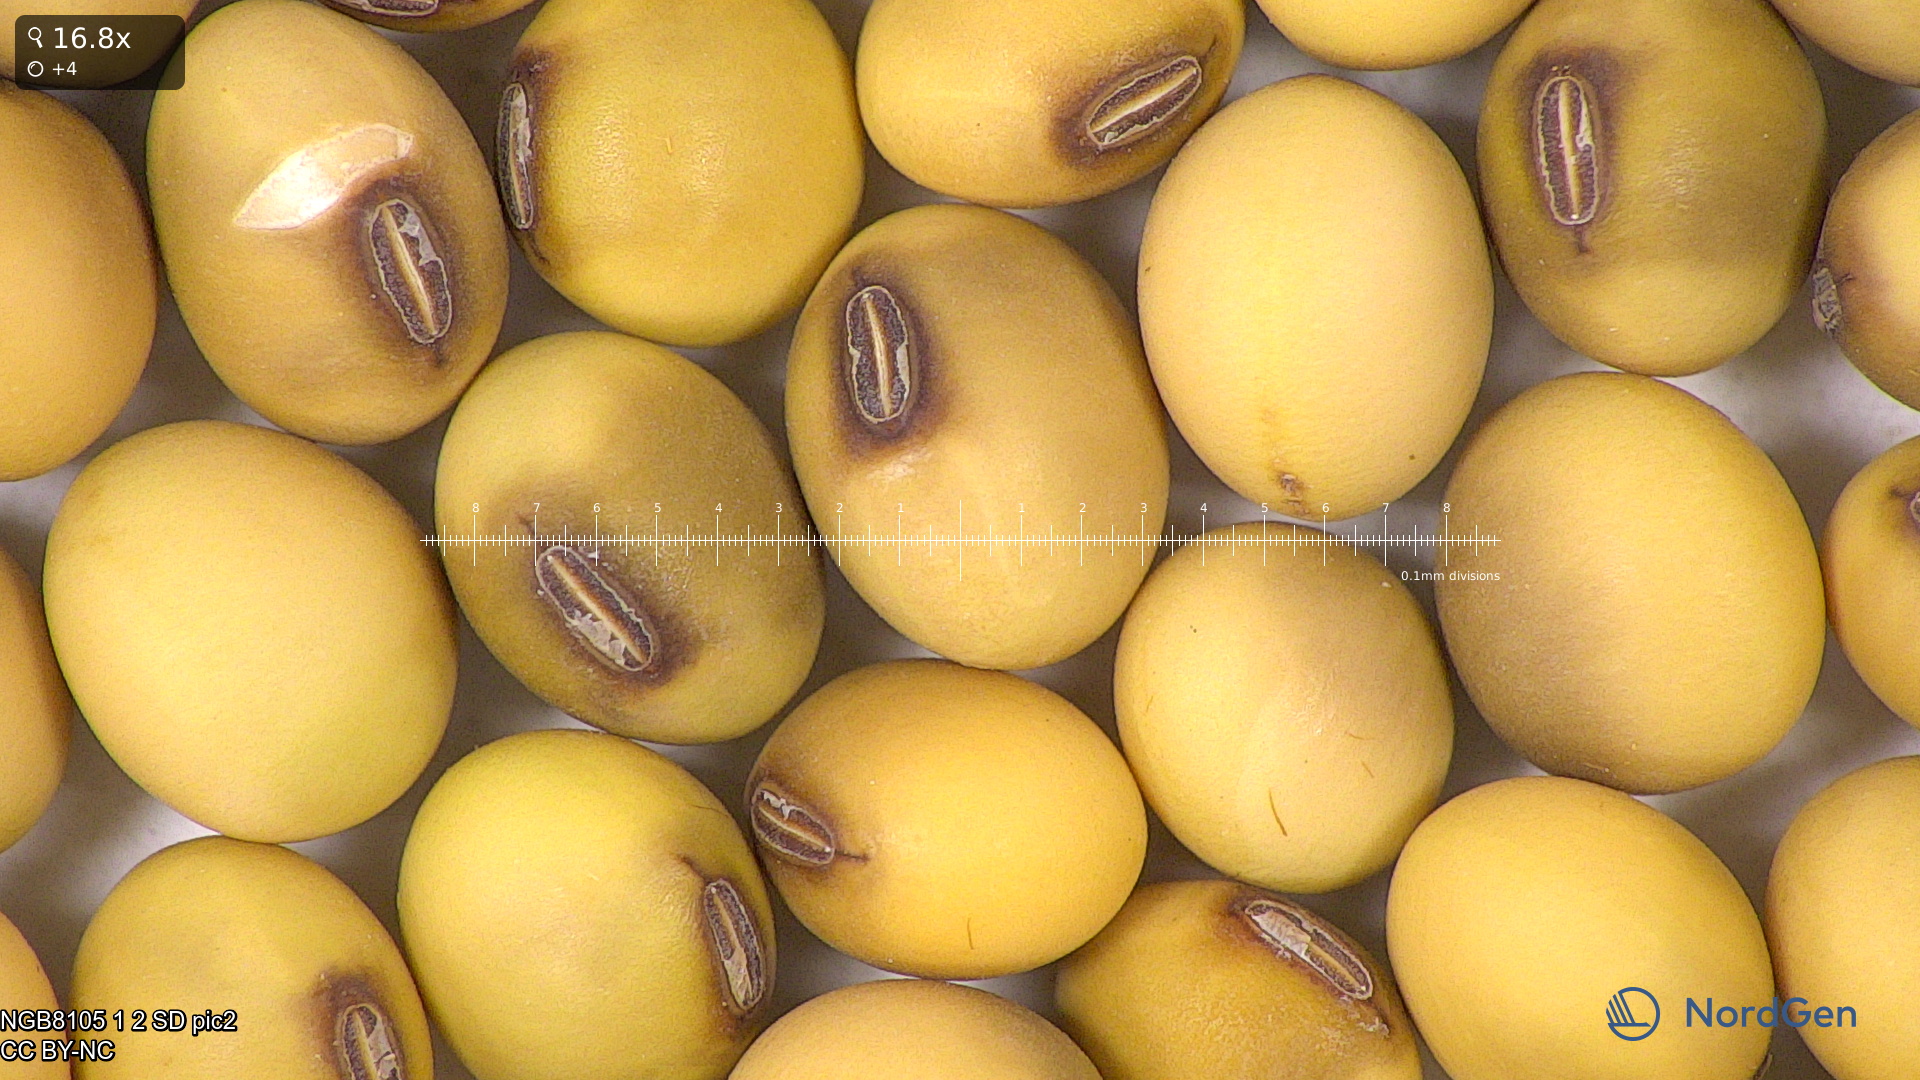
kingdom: Plantae
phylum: Tracheophyta
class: Magnoliopsida
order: Fabales
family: Fabaceae
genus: Glycine
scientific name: Glycine max
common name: Soya-bean
